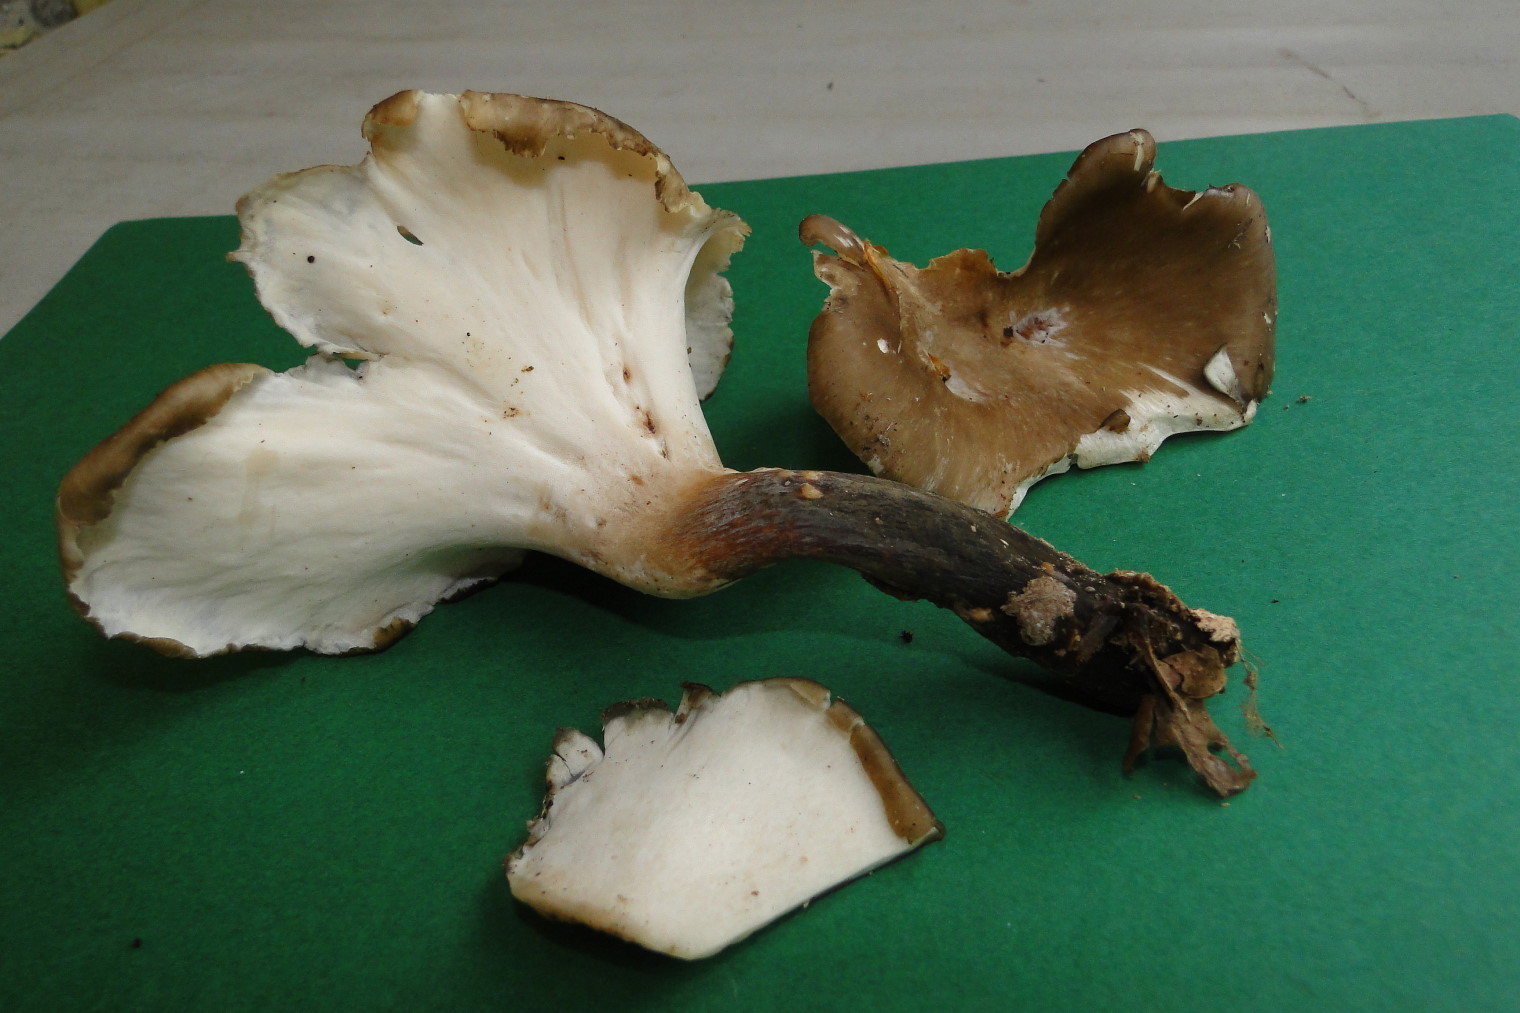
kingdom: Fungi
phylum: Basidiomycota
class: Agaricomycetes
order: Polyporales
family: Polyporaceae
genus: Picipes
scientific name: Picipes melanopus
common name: sortfodet stilkporesvamp
